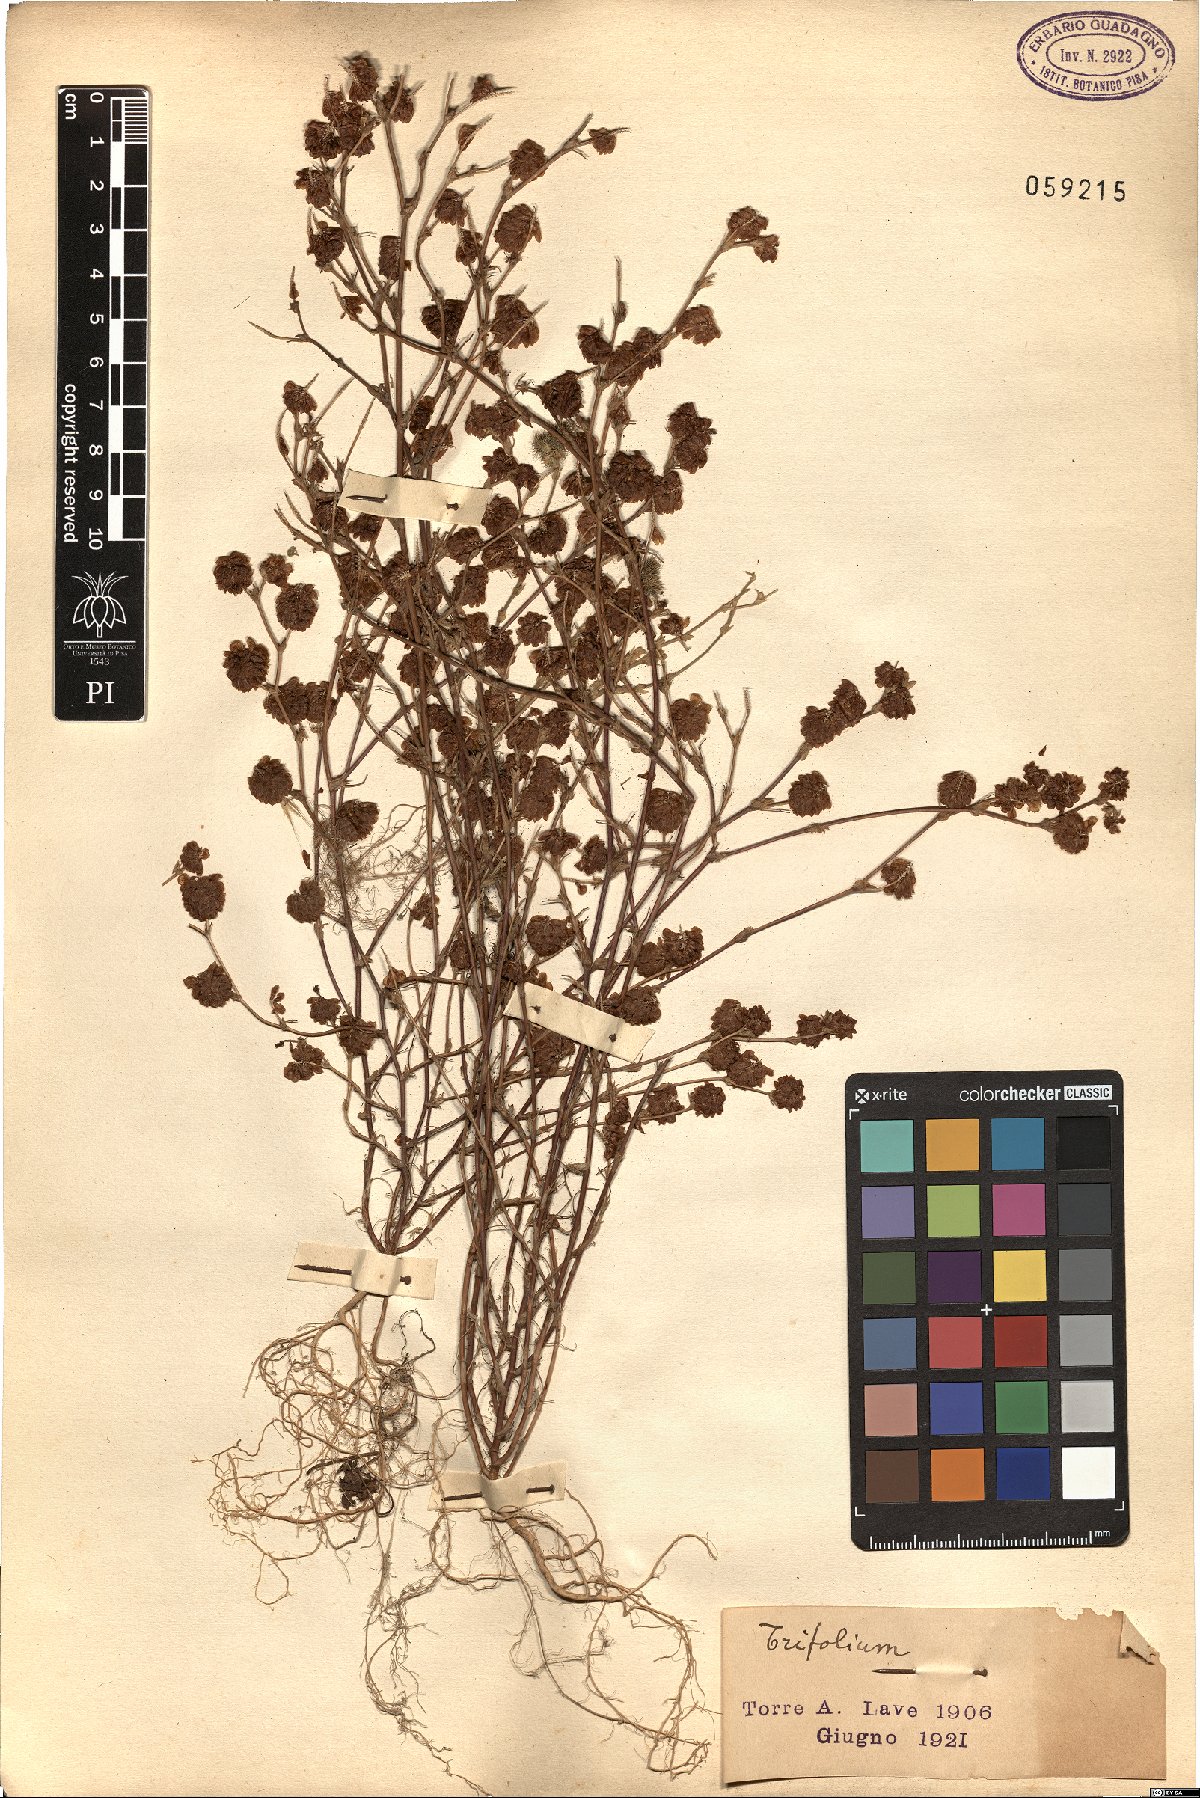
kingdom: Plantae
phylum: Tracheophyta
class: Magnoliopsida
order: Fabales
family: Fabaceae
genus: Trifolium
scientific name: Trifolium
